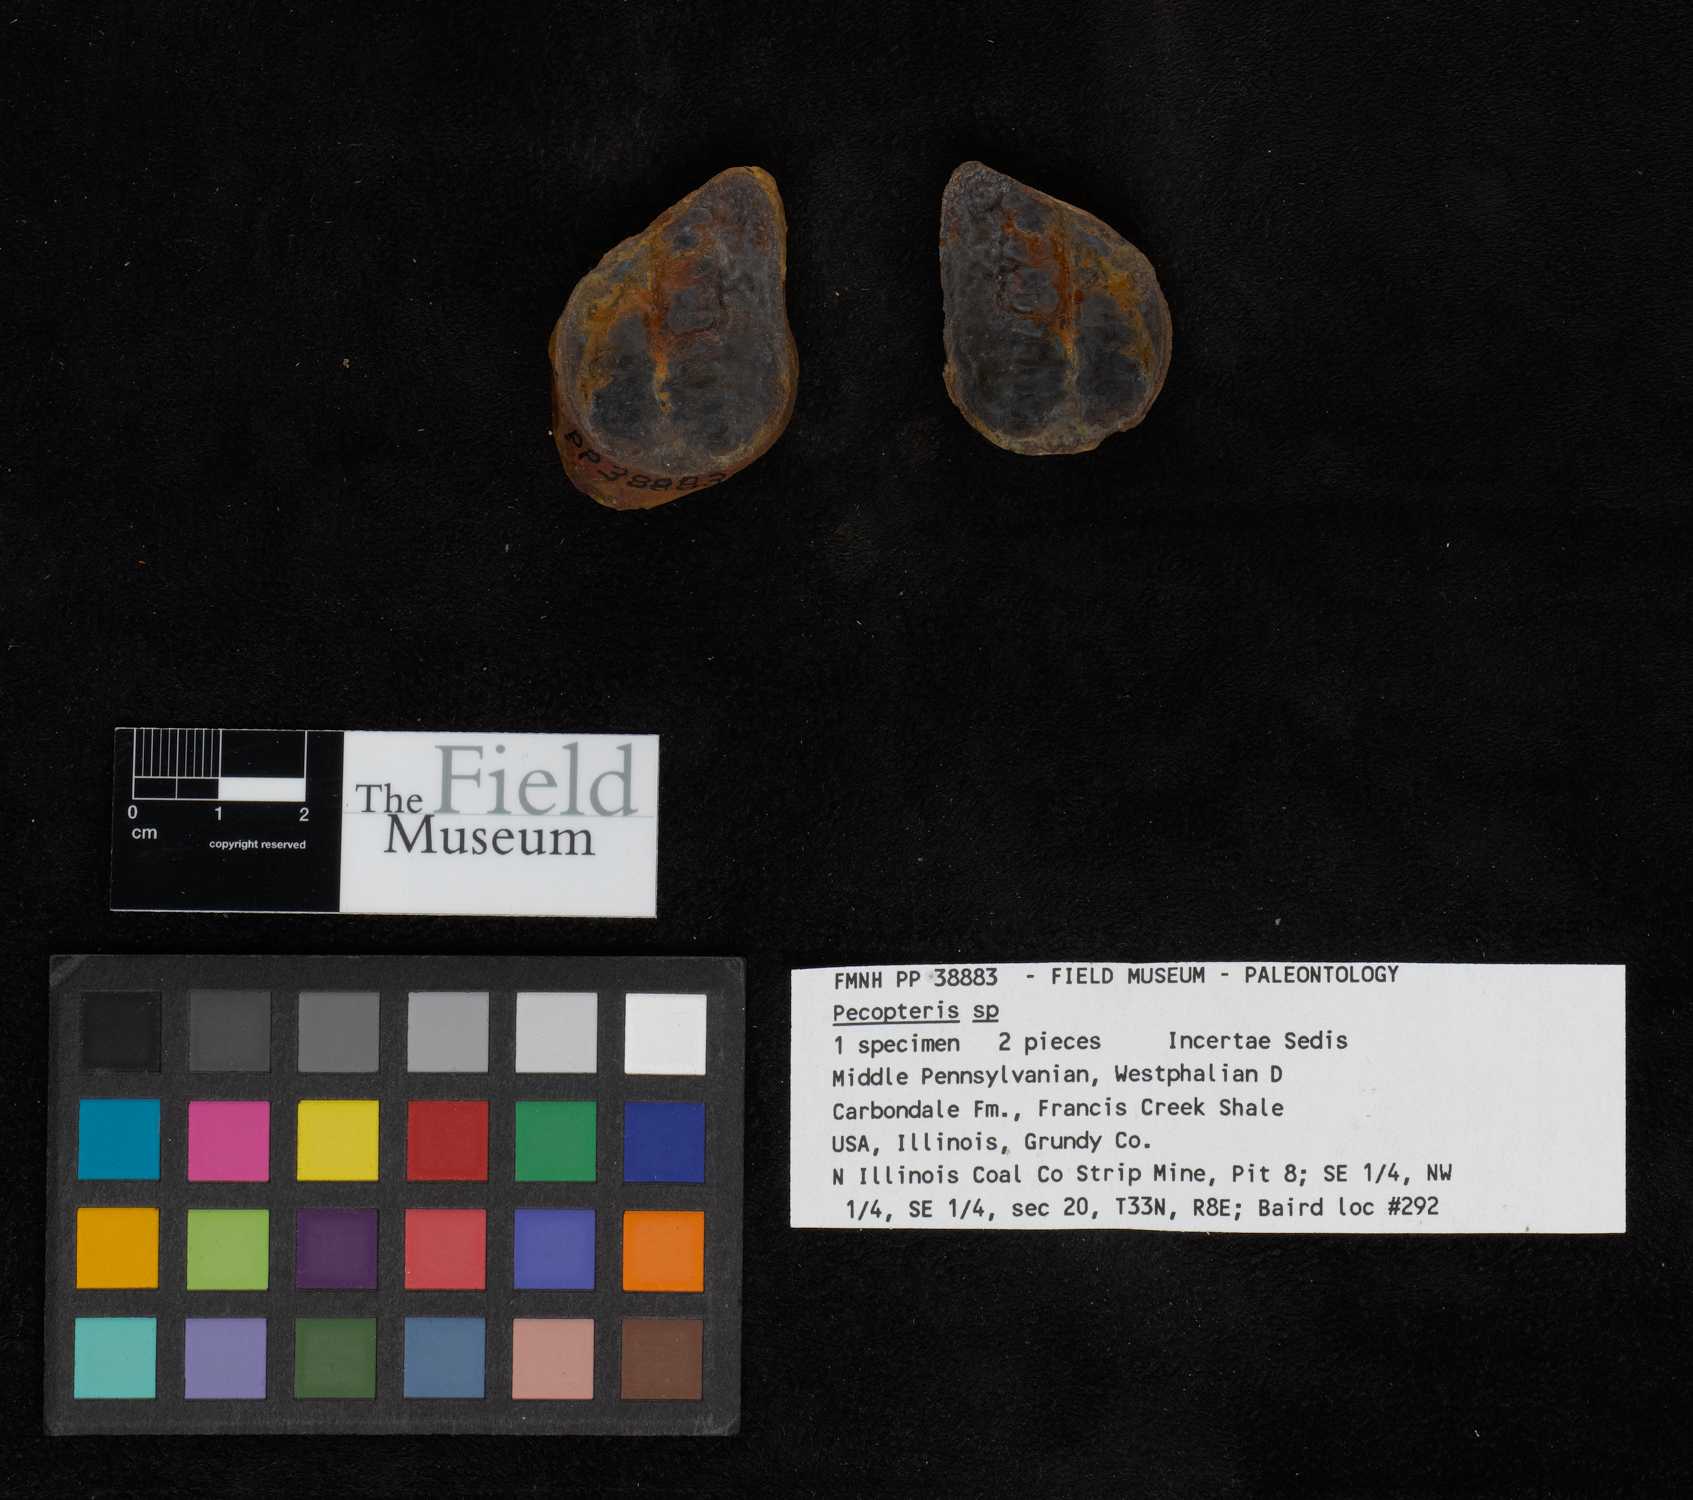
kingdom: Plantae
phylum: Tracheophyta
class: Polypodiopsida
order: Marattiales
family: Asterothecaceae
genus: Pecopteris
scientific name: Pecopteris
